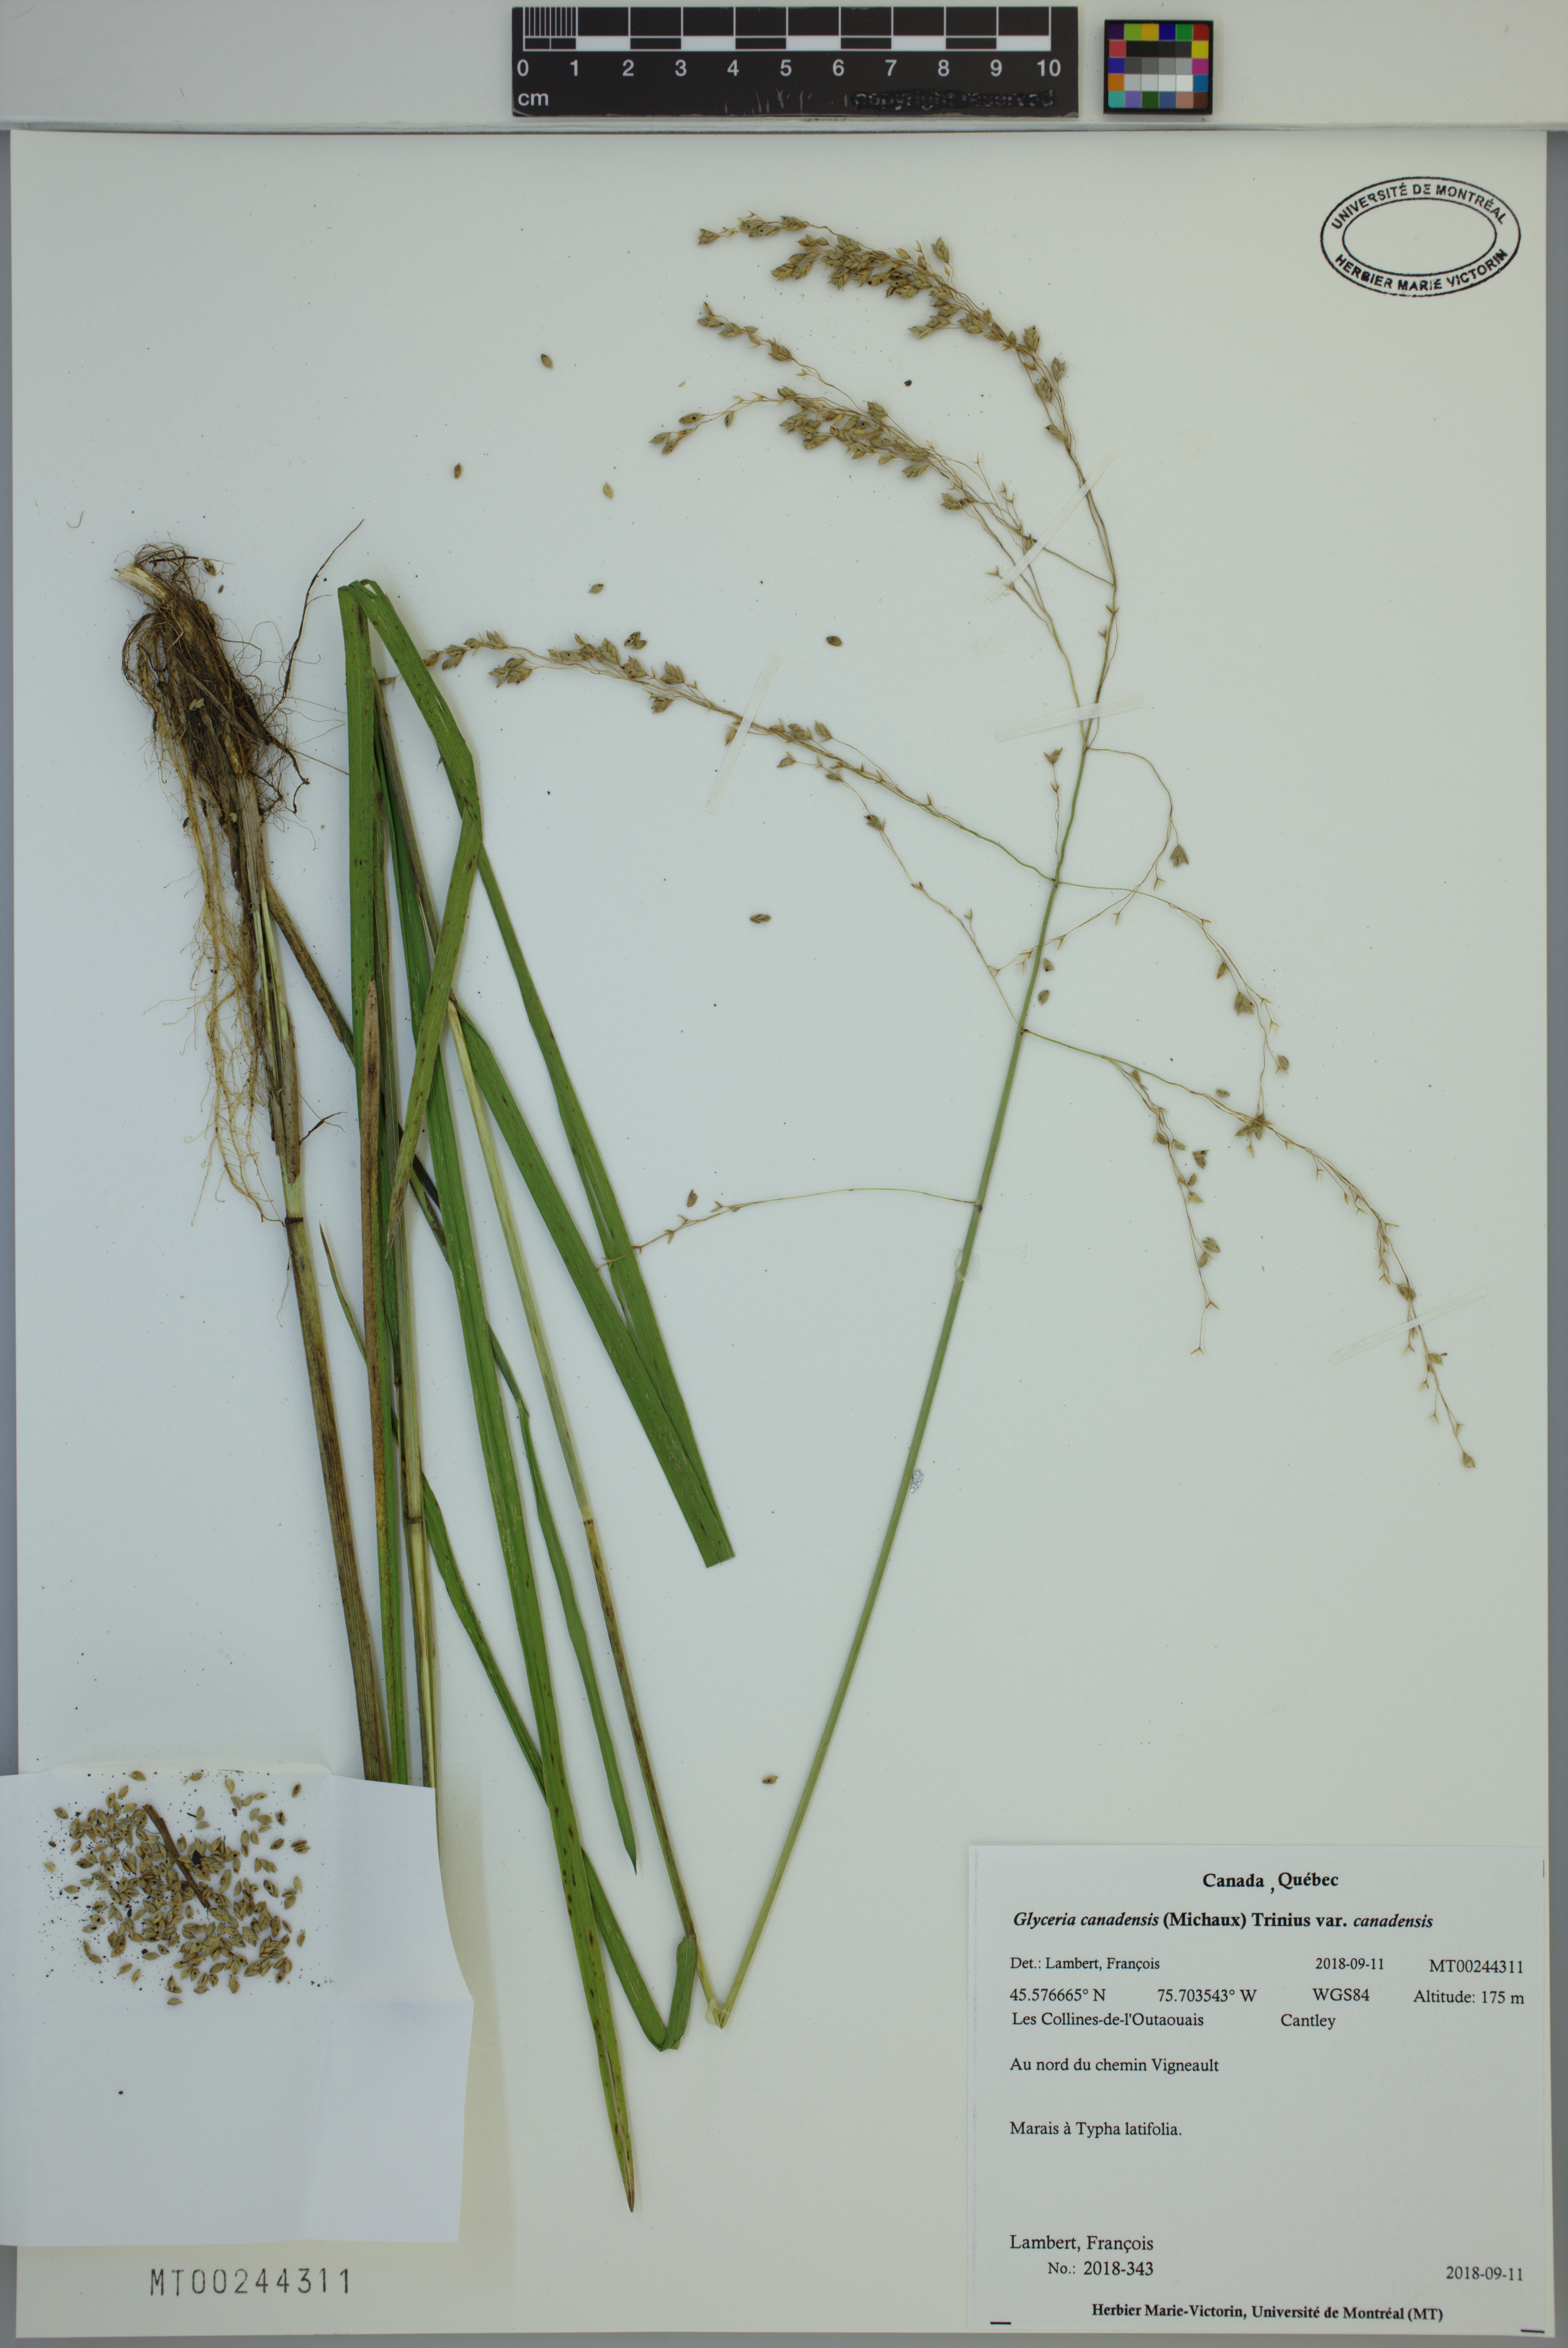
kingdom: Plantae
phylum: Tracheophyta
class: Liliopsida
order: Poales
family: Poaceae
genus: Glyceria
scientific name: Glyceria canadensis
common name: Canada mannagrass
